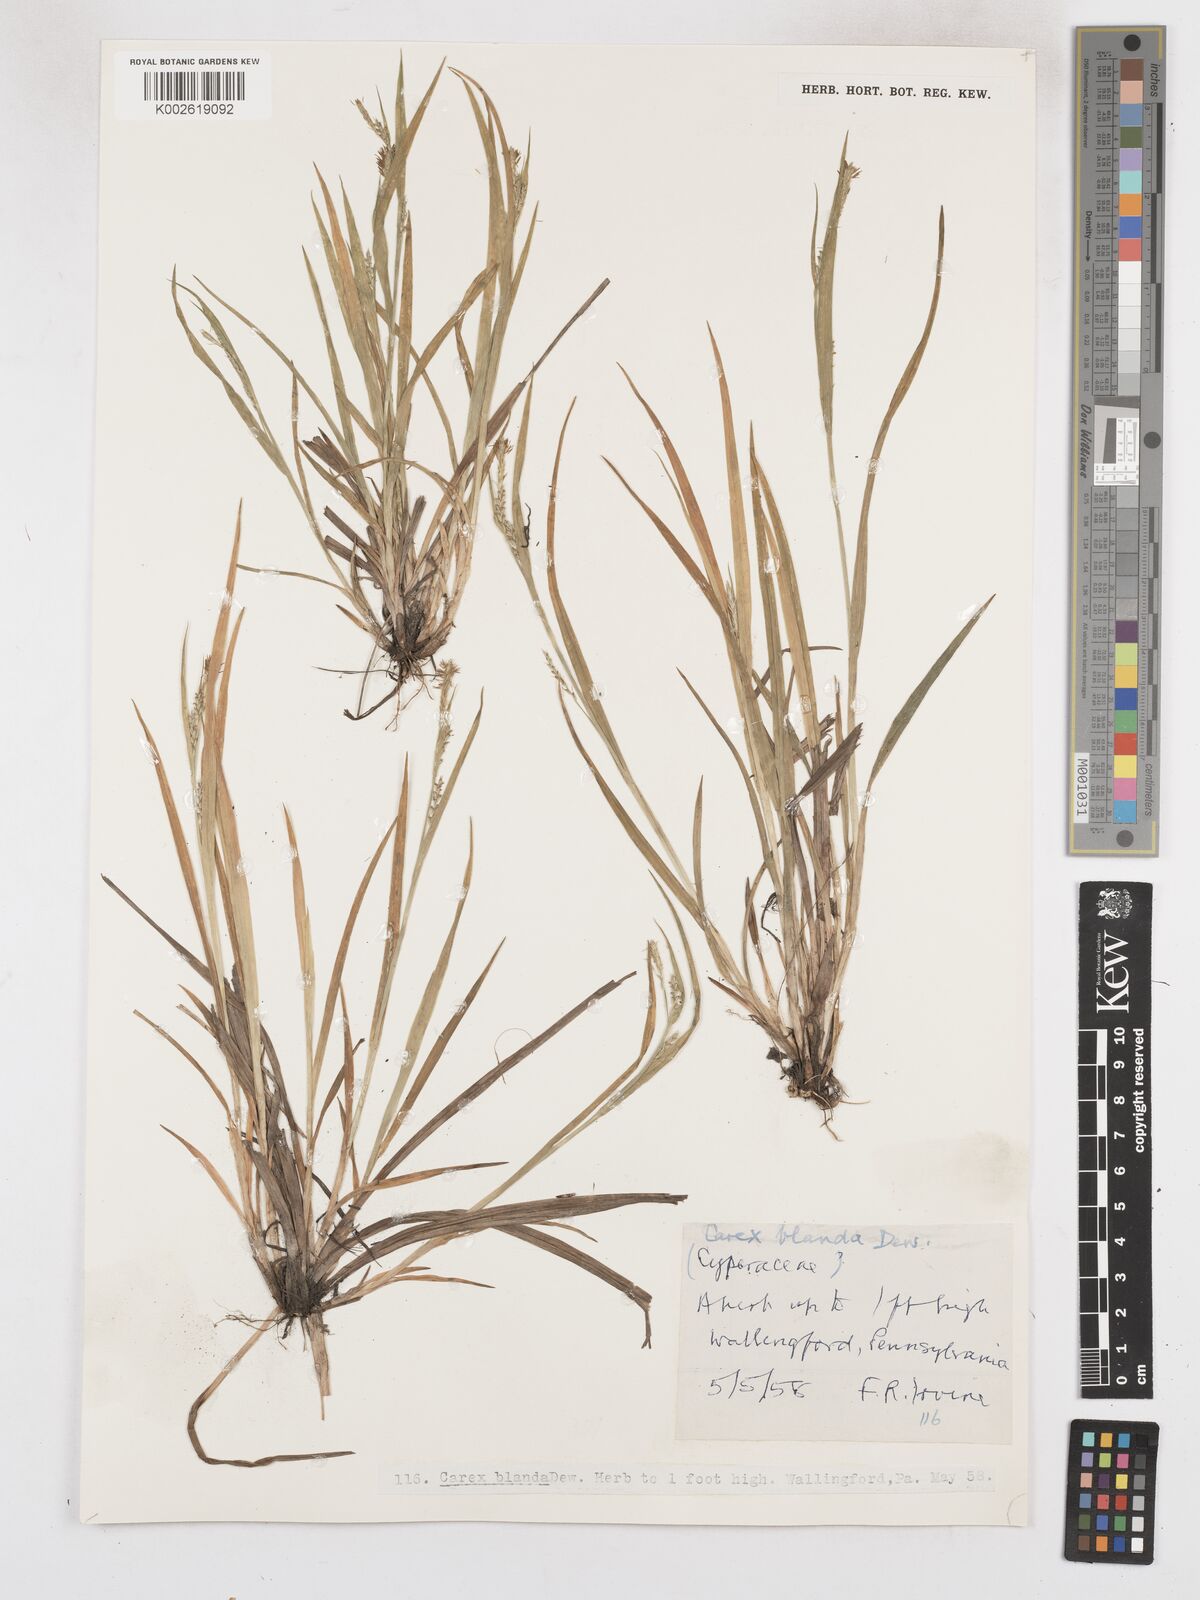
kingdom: Plantae
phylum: Tracheophyta
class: Liliopsida
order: Poales
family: Cyperaceae
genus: Carex
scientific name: Carex blanda
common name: Bland sedge
